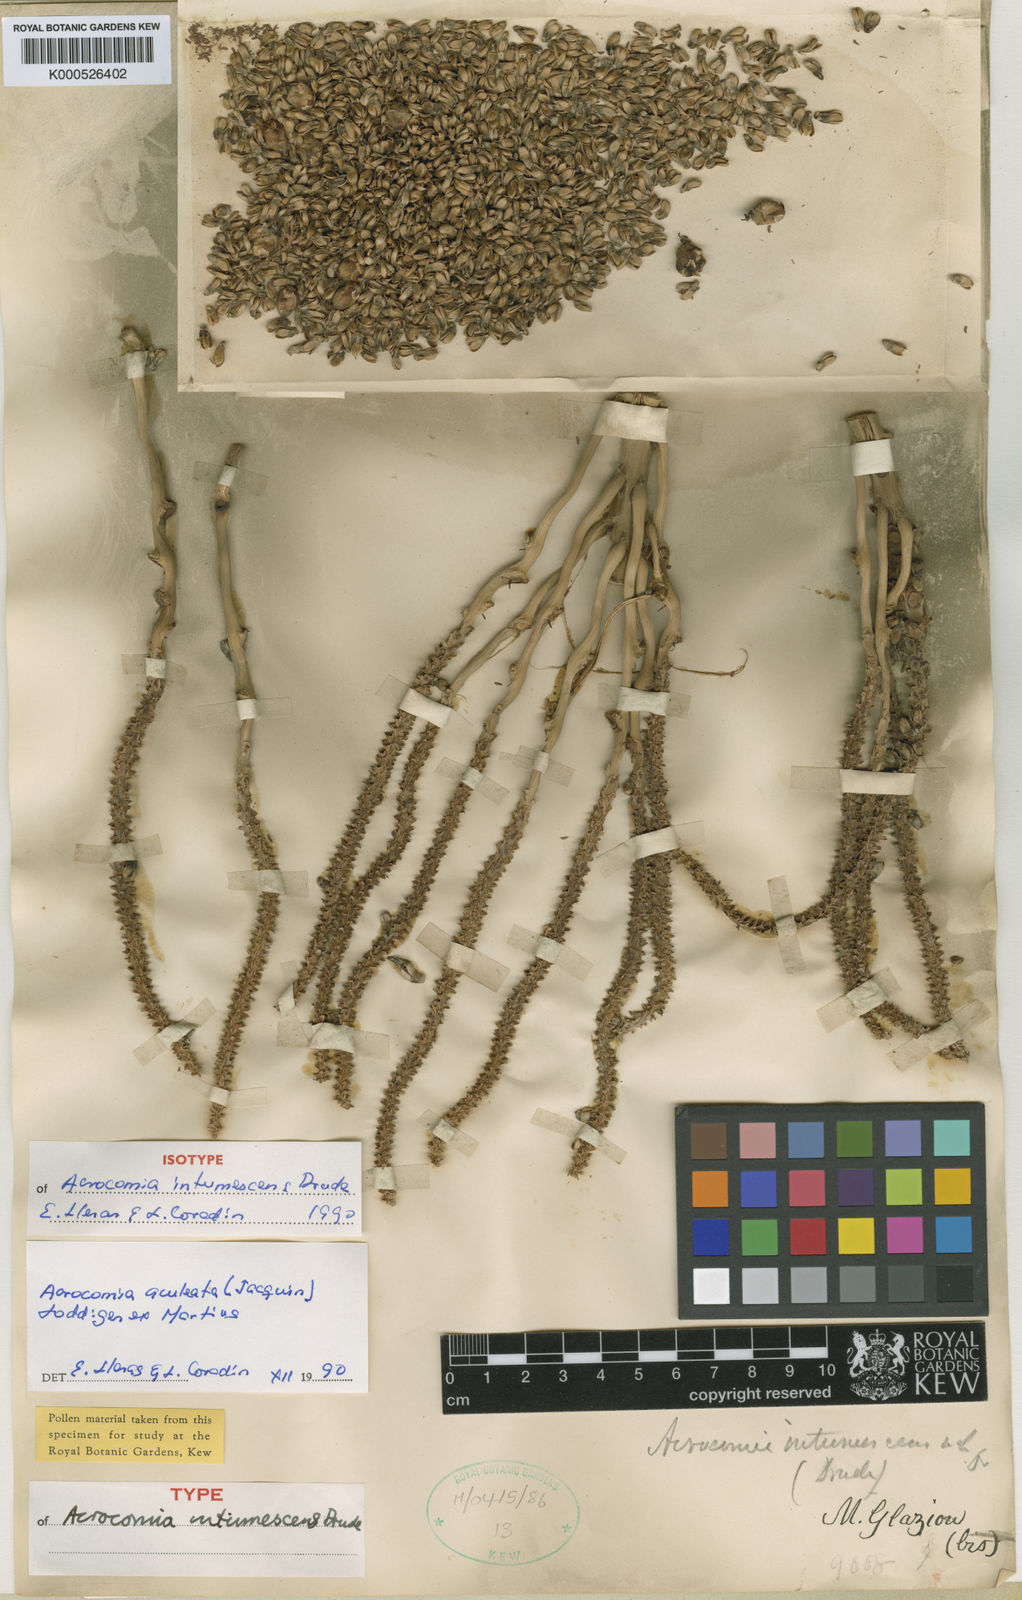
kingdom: Plantae
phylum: Tracheophyta
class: Liliopsida
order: Arecales
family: Arecaceae
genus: Acrocomia
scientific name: Acrocomia intumescens
